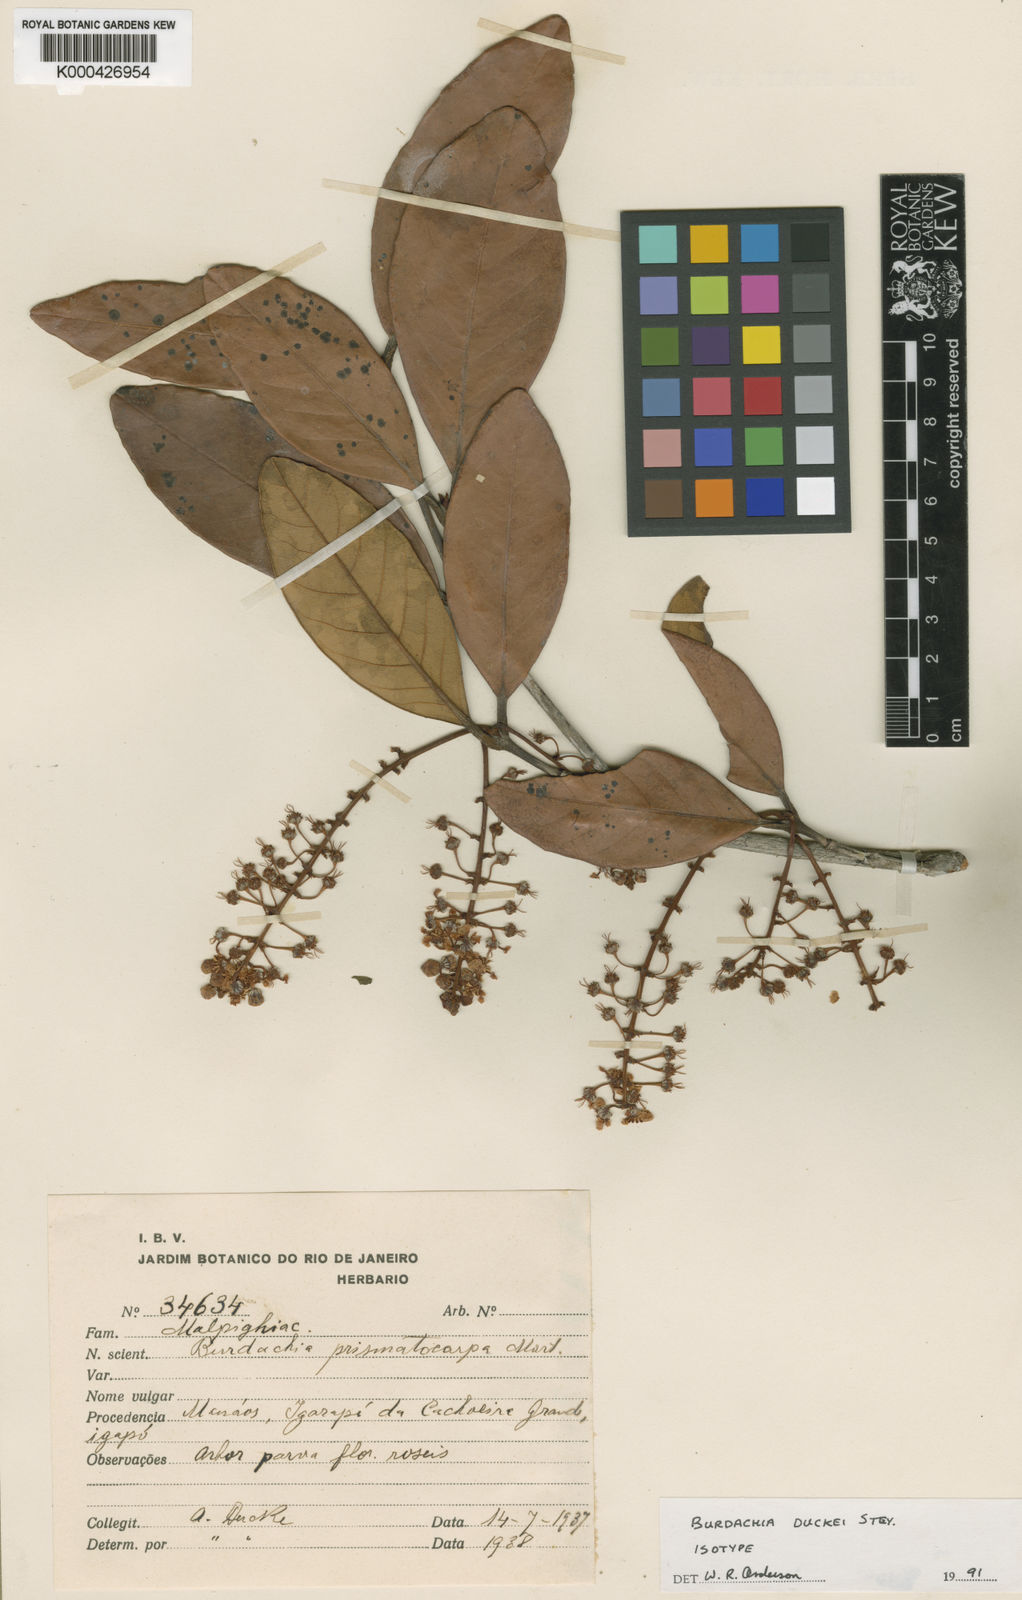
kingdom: Plantae
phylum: Tracheophyta
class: Magnoliopsida
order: Malpighiales
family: Malpighiaceae
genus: Burdachia
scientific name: Burdachia duckei
